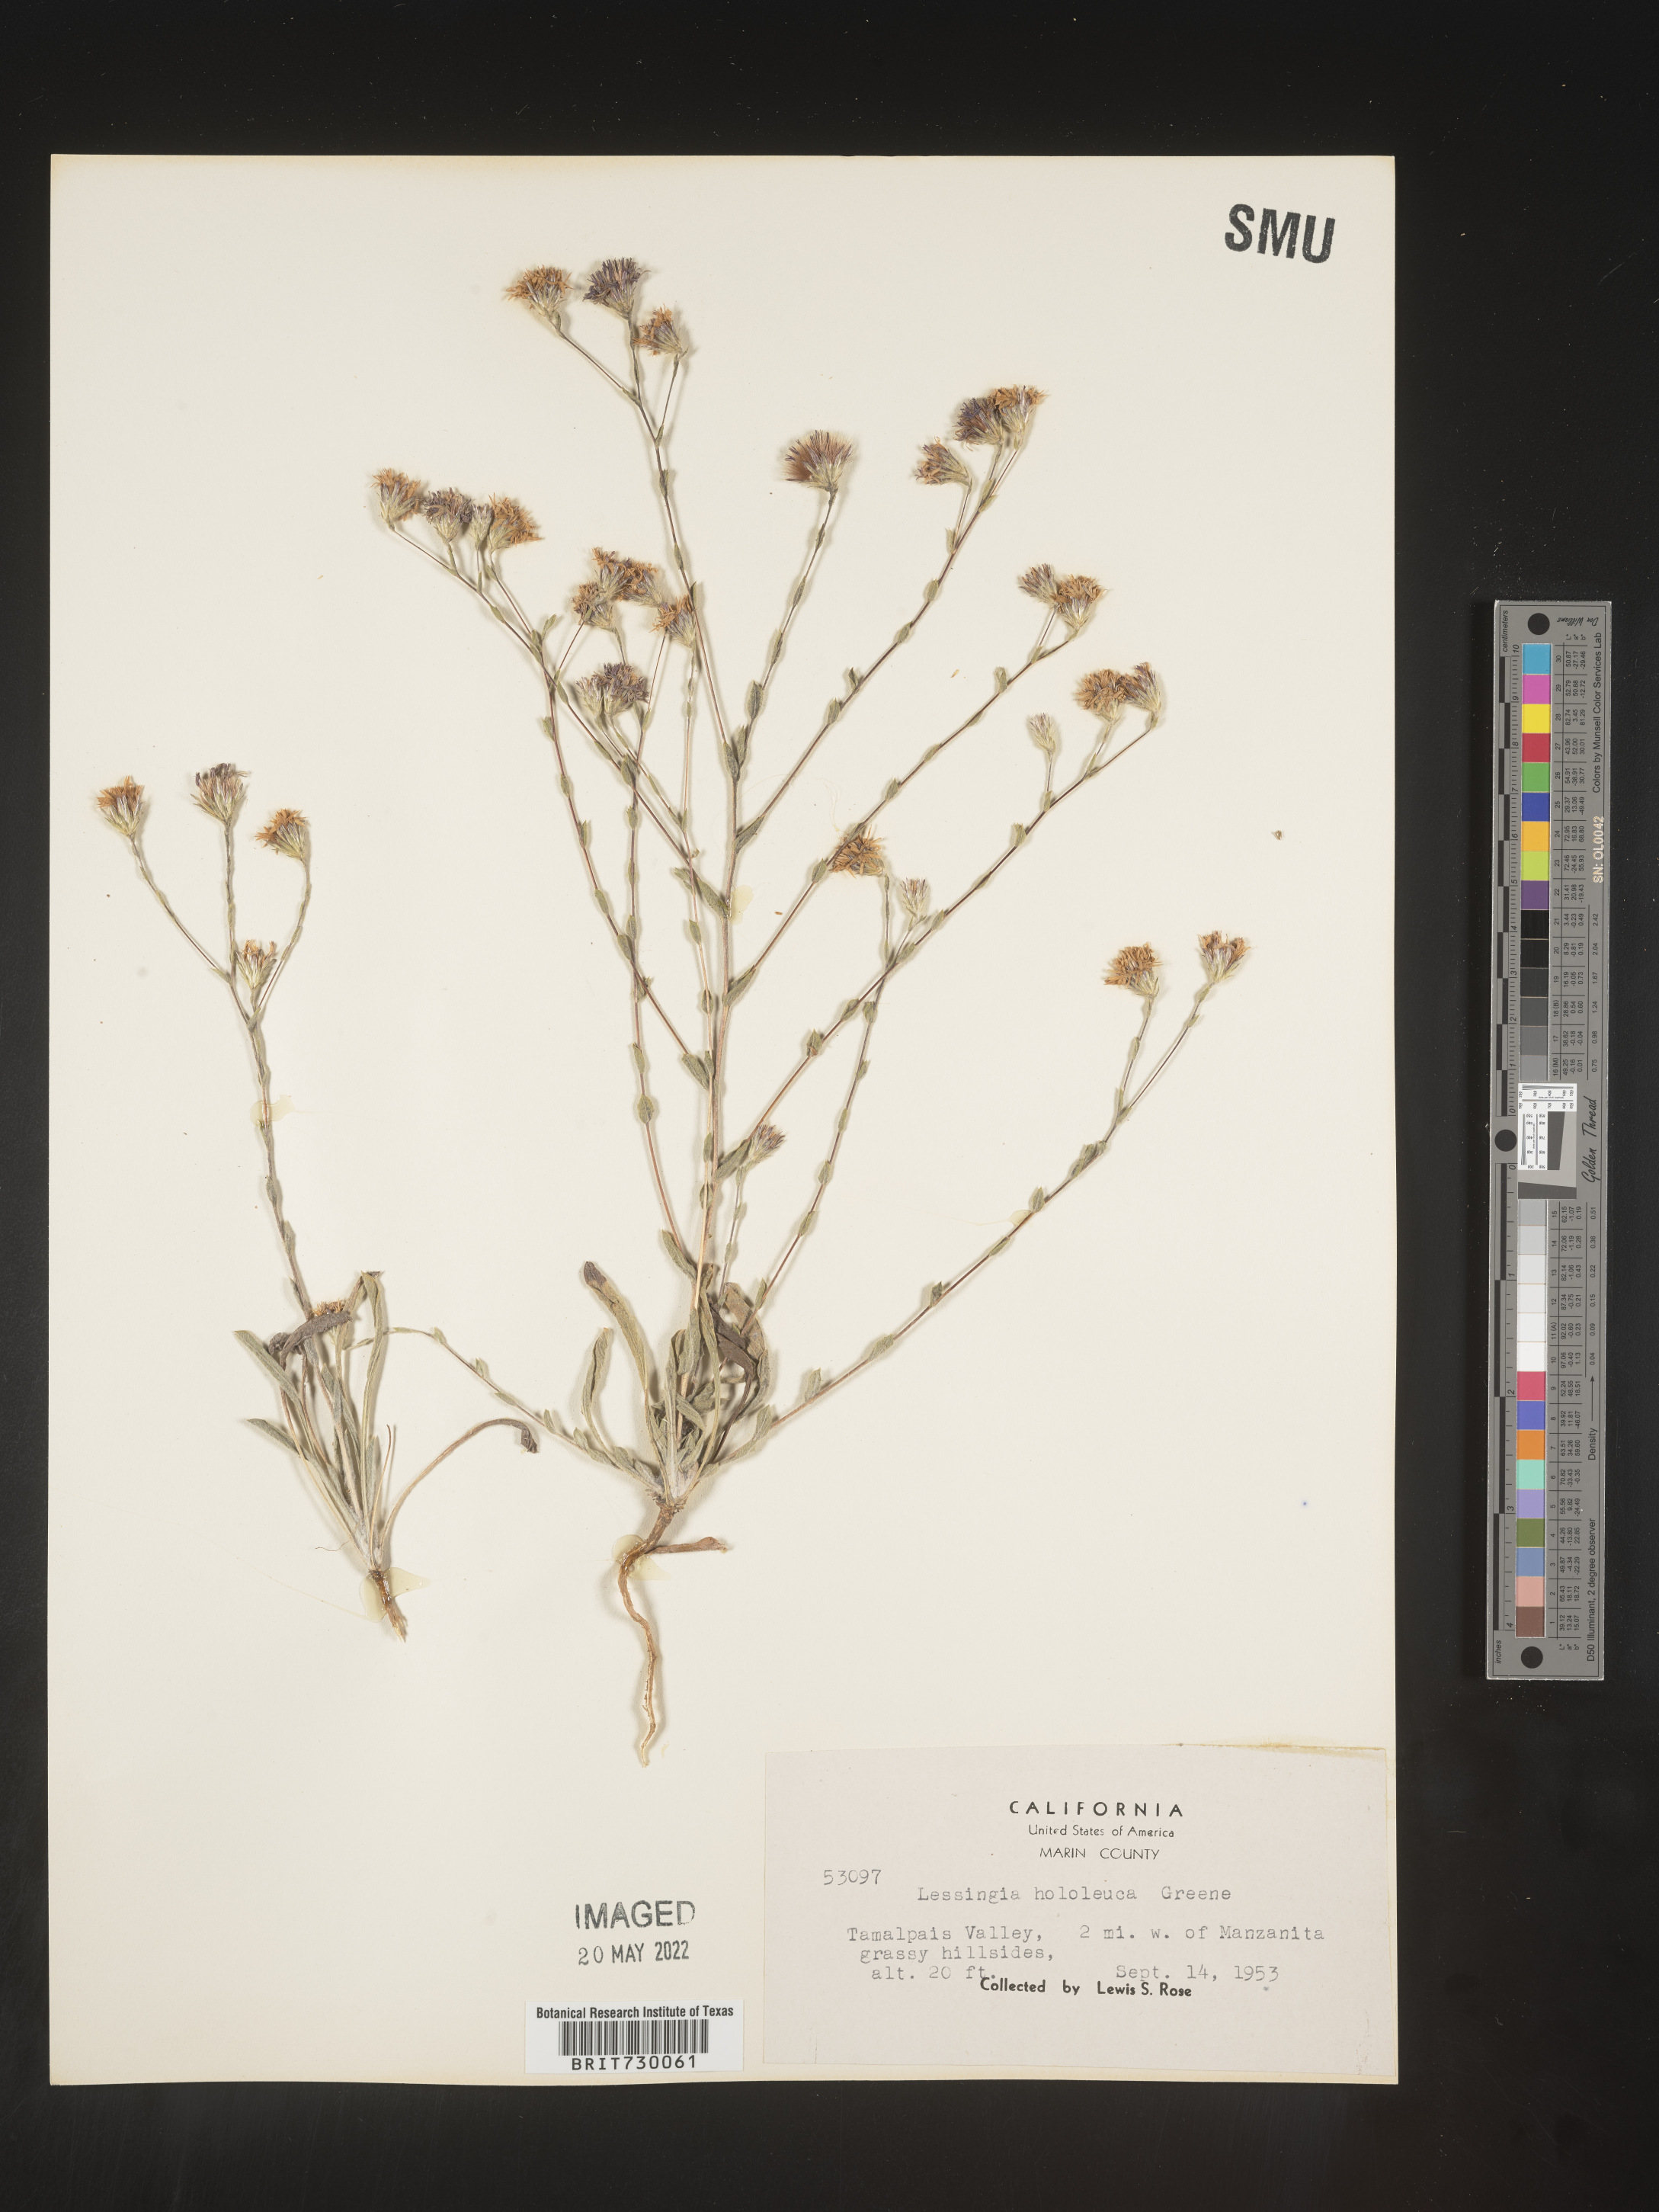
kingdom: Plantae
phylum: Tracheophyta
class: Magnoliopsida
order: Asterales
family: Asteraceae
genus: Lessingia
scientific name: Lessingia
